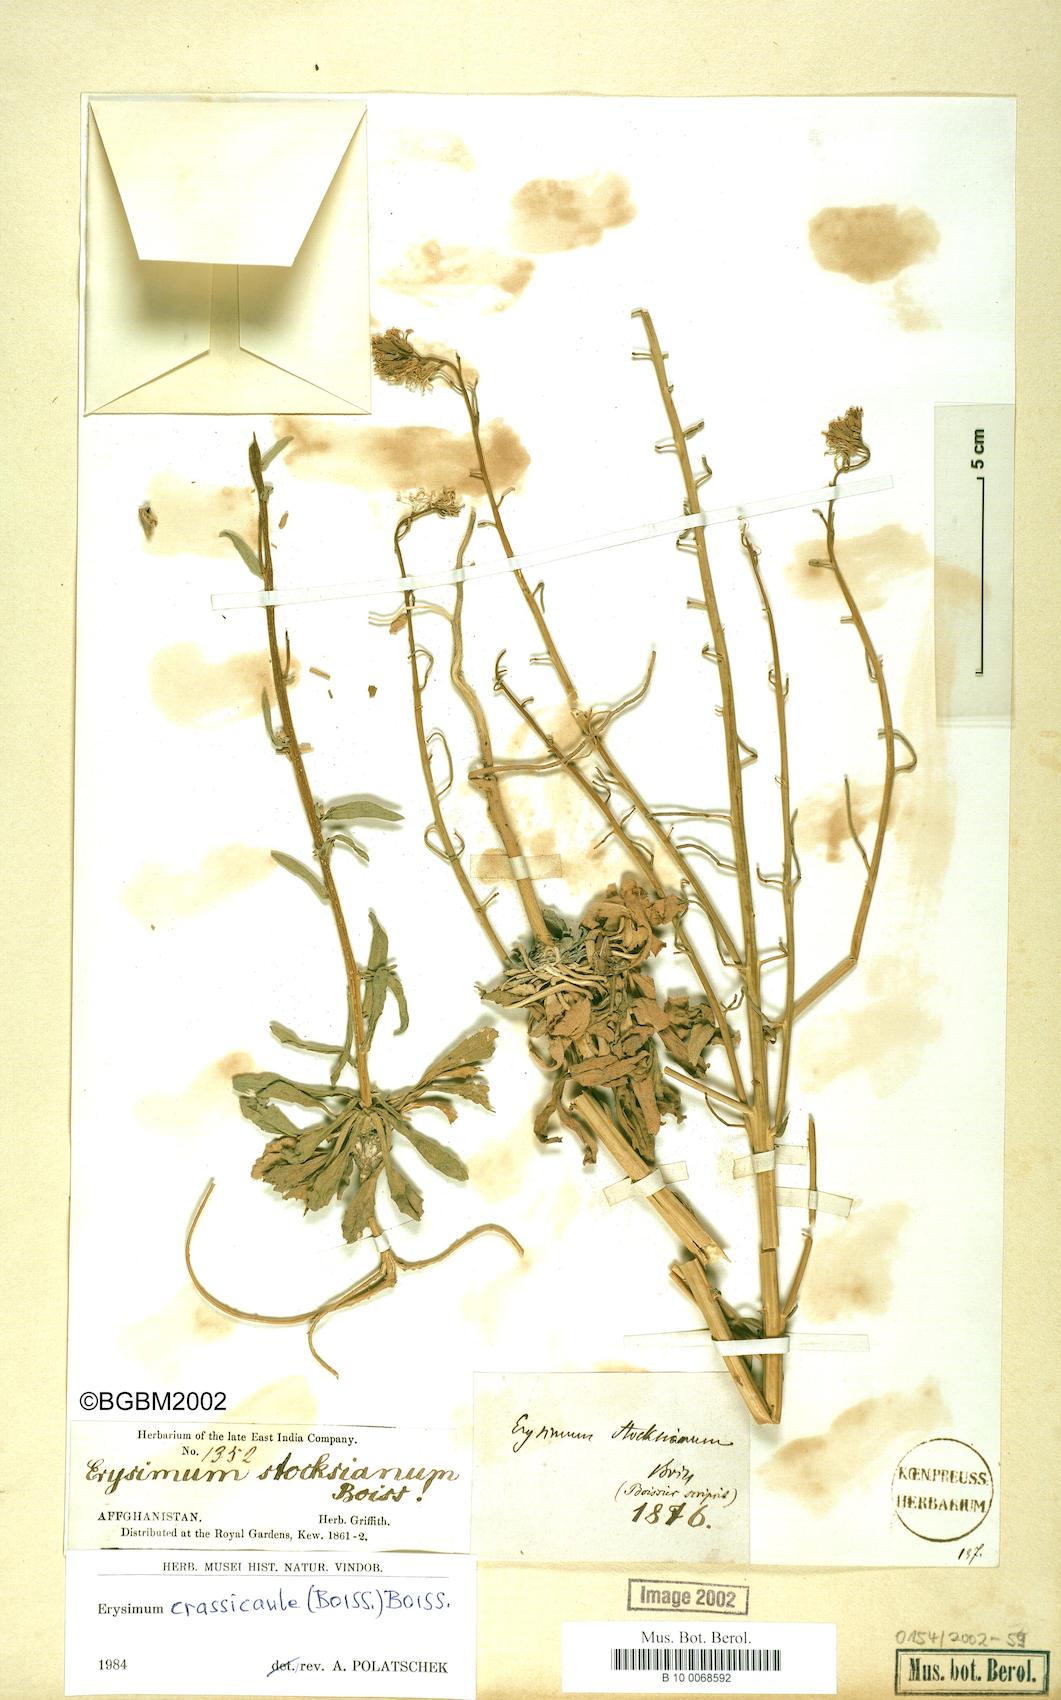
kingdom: Plantae
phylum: Tracheophyta
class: Magnoliopsida
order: Brassicales
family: Brassicaceae
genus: Erysimum
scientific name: Erysimum crassicaule
